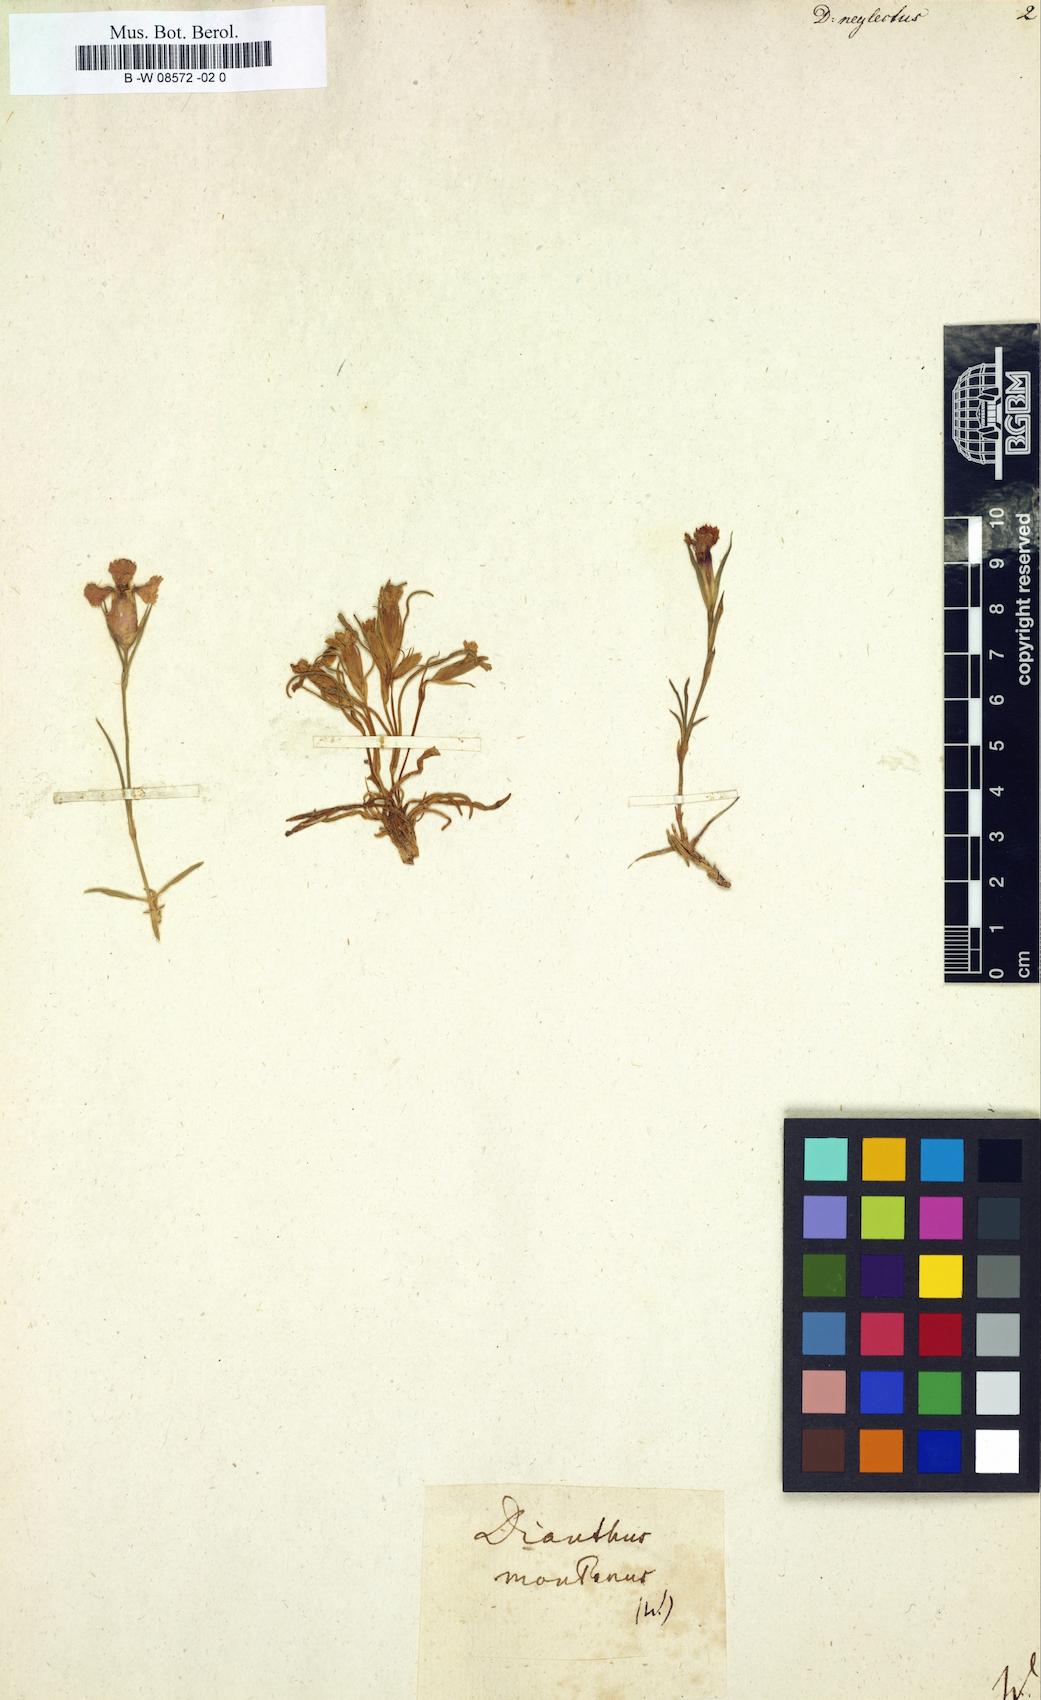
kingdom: Plantae
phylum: Tracheophyta
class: Magnoliopsida
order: Caryophyllales
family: Caryophyllaceae
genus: Dianthus
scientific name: Dianthus seguieri
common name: Ragged pink
